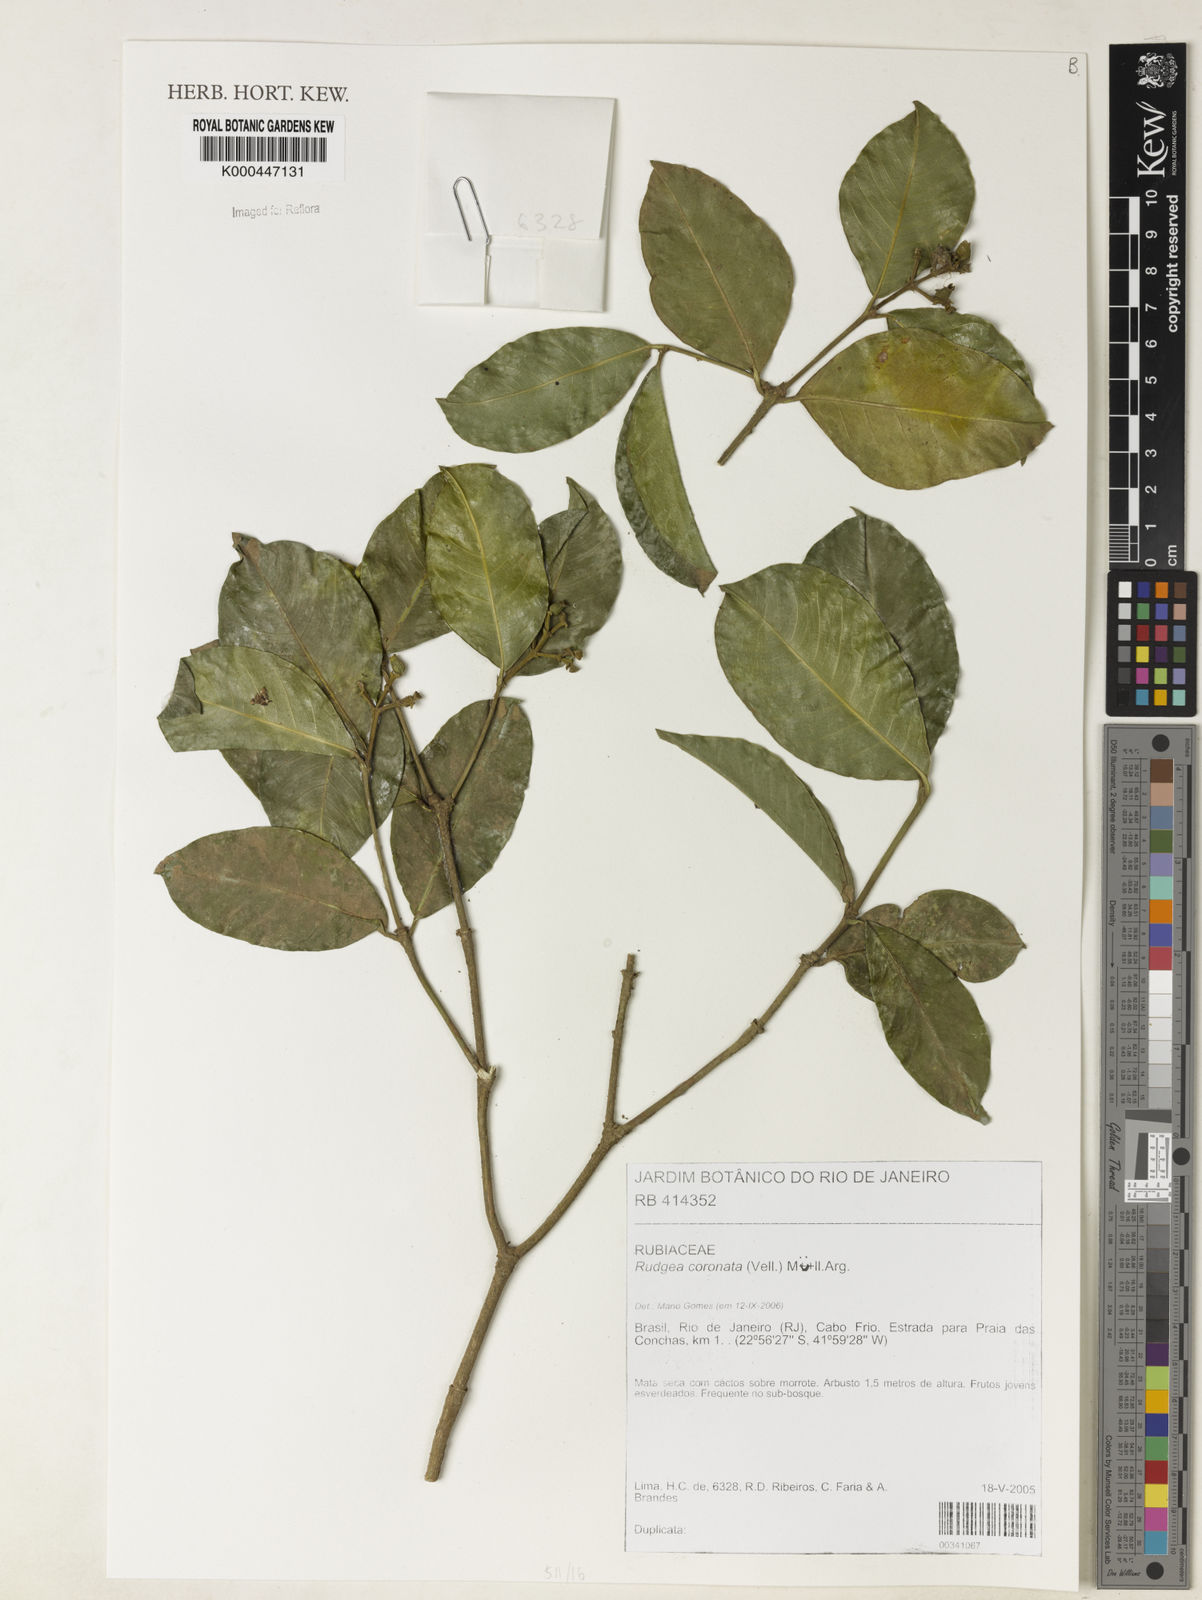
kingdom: Plantae
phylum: Tracheophyta
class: Magnoliopsida
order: Gentianales
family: Rubiaceae
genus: Rudgea
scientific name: Rudgea coronata
